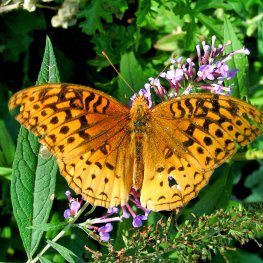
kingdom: Animalia
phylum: Arthropoda
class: Insecta
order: Lepidoptera
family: Nymphalidae
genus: Speyeria
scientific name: Speyeria cybele
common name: Great Spangled Fritillary
